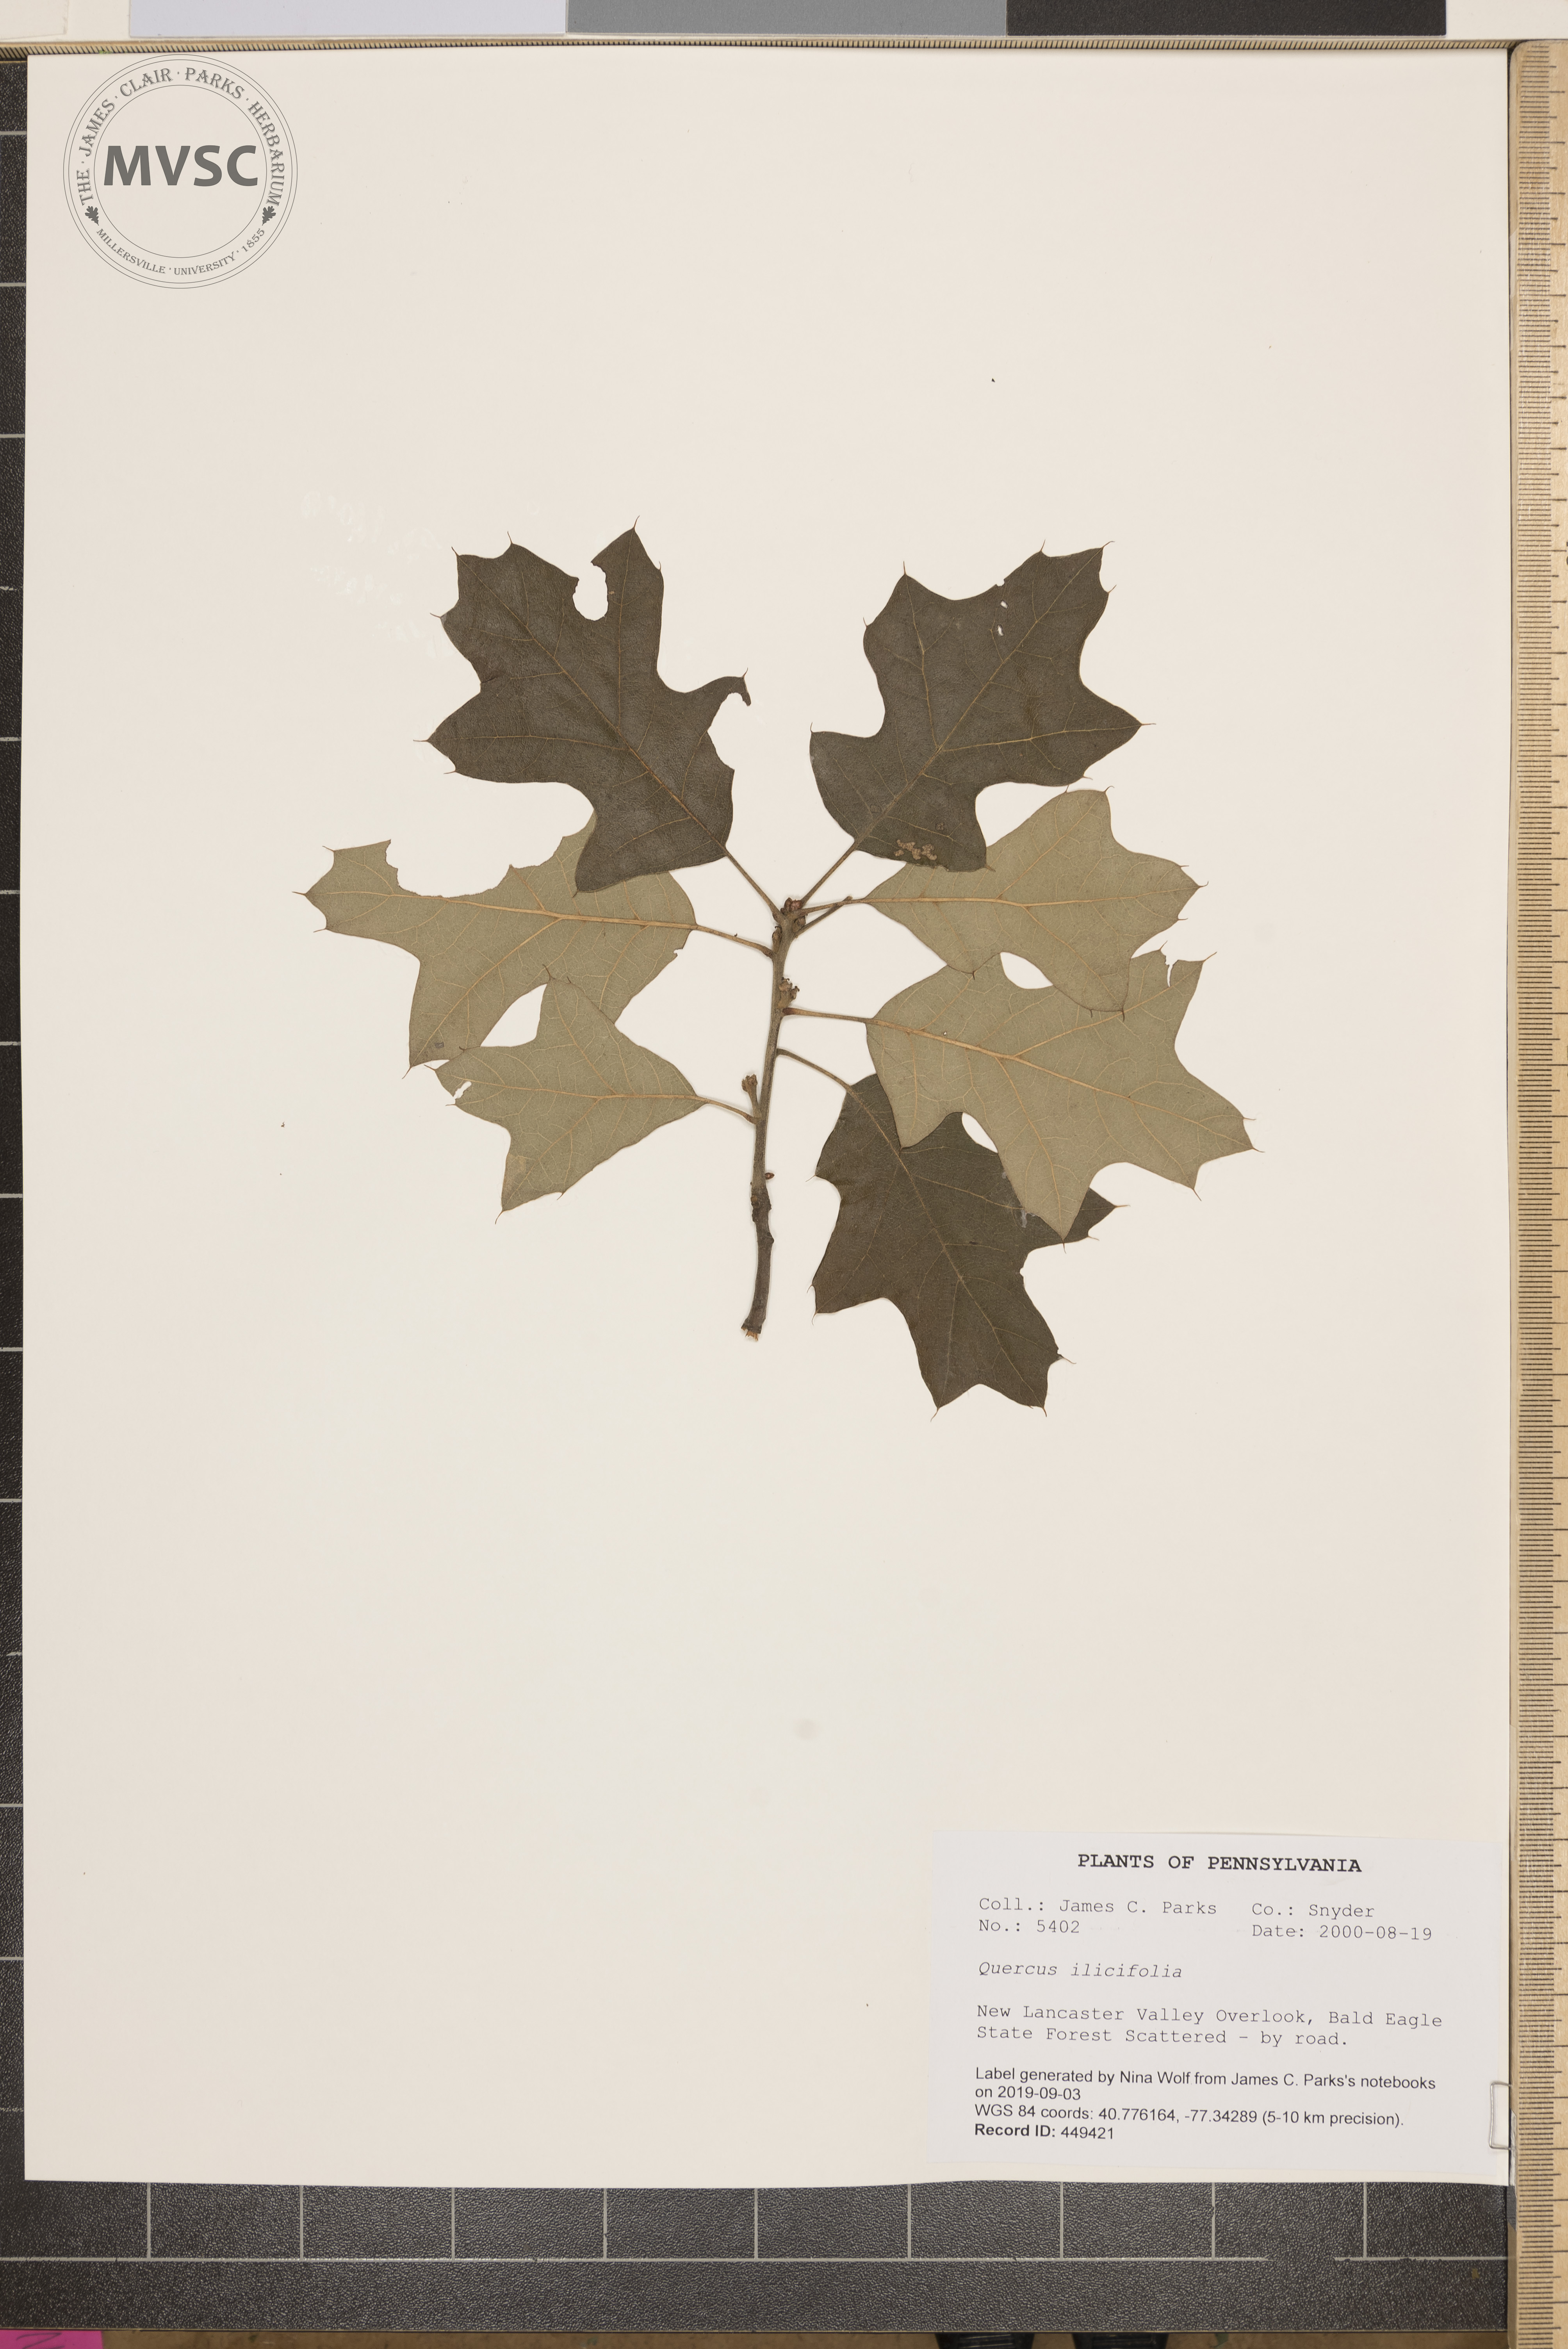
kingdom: Plantae
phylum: Tracheophyta
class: Magnoliopsida
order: Fagales
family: Fagaceae
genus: Quercus
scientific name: Quercus ilicifolia
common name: Bear oak
